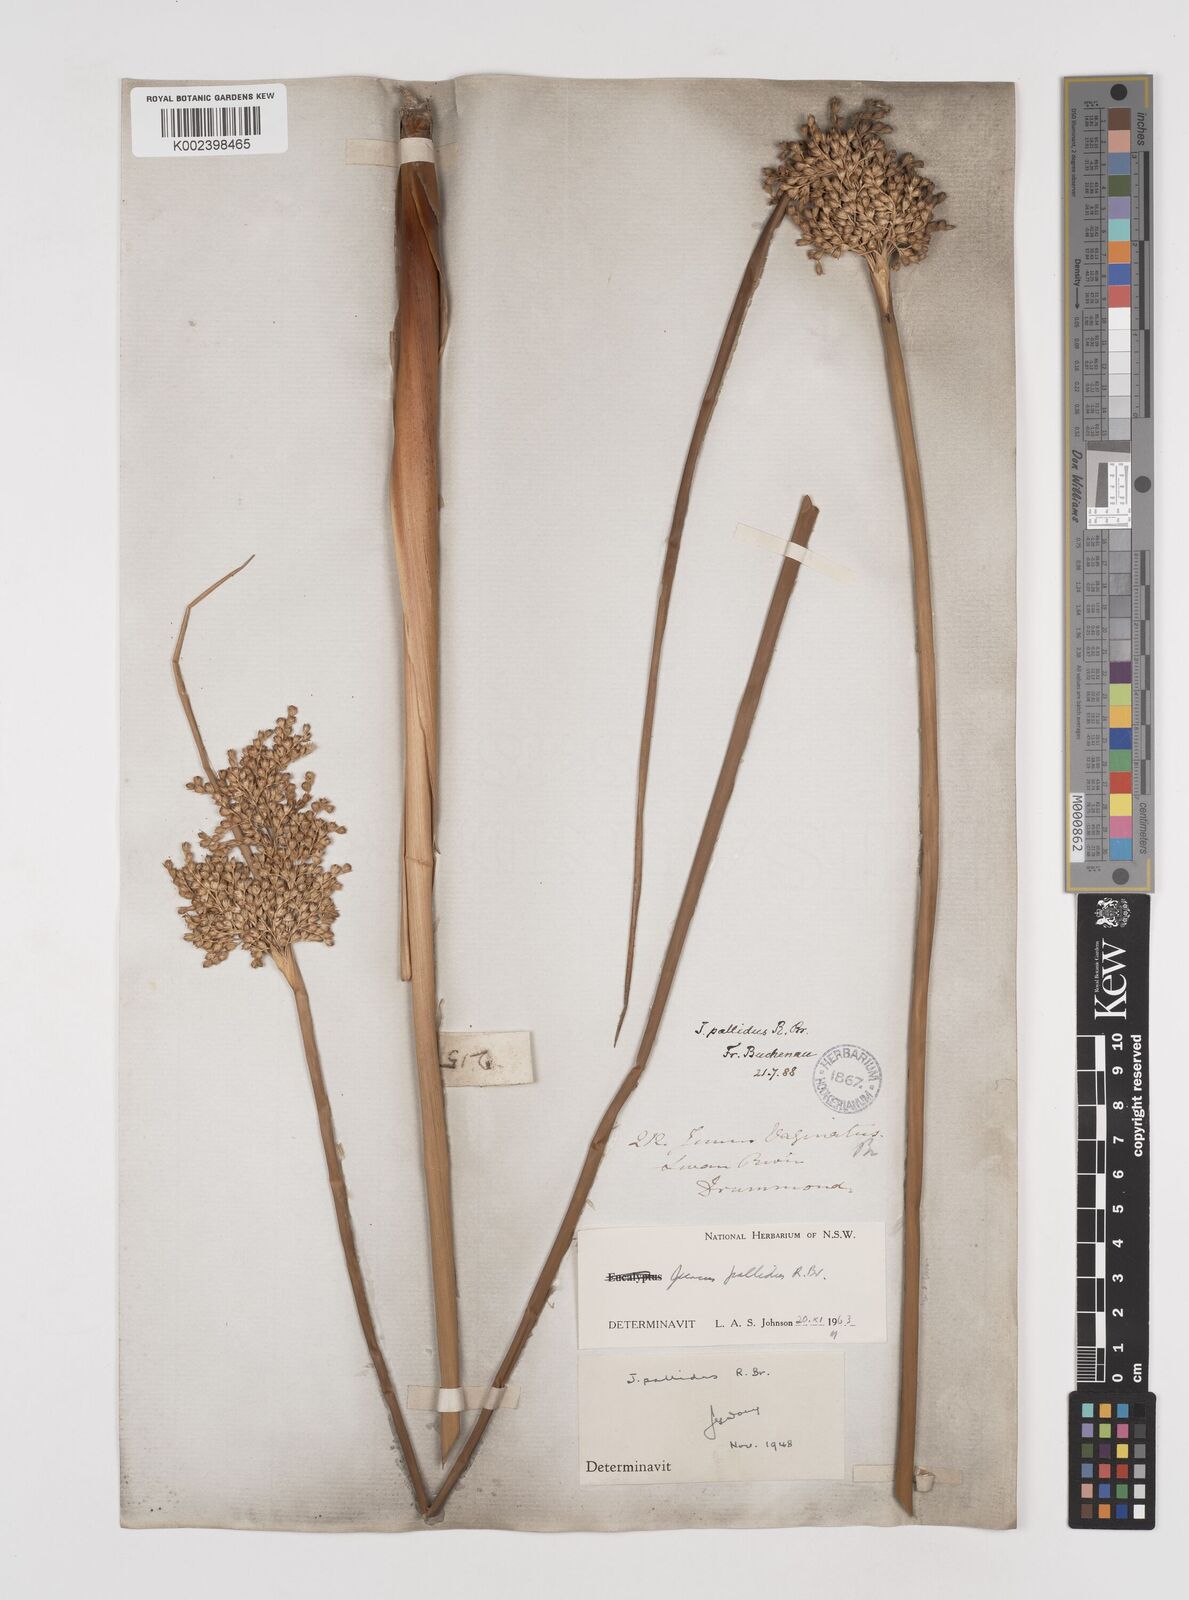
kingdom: Plantae
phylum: Tracheophyta
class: Liliopsida
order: Poales
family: Juncaceae
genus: Juncus
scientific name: Juncus pallidus
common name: Great soft-rush
